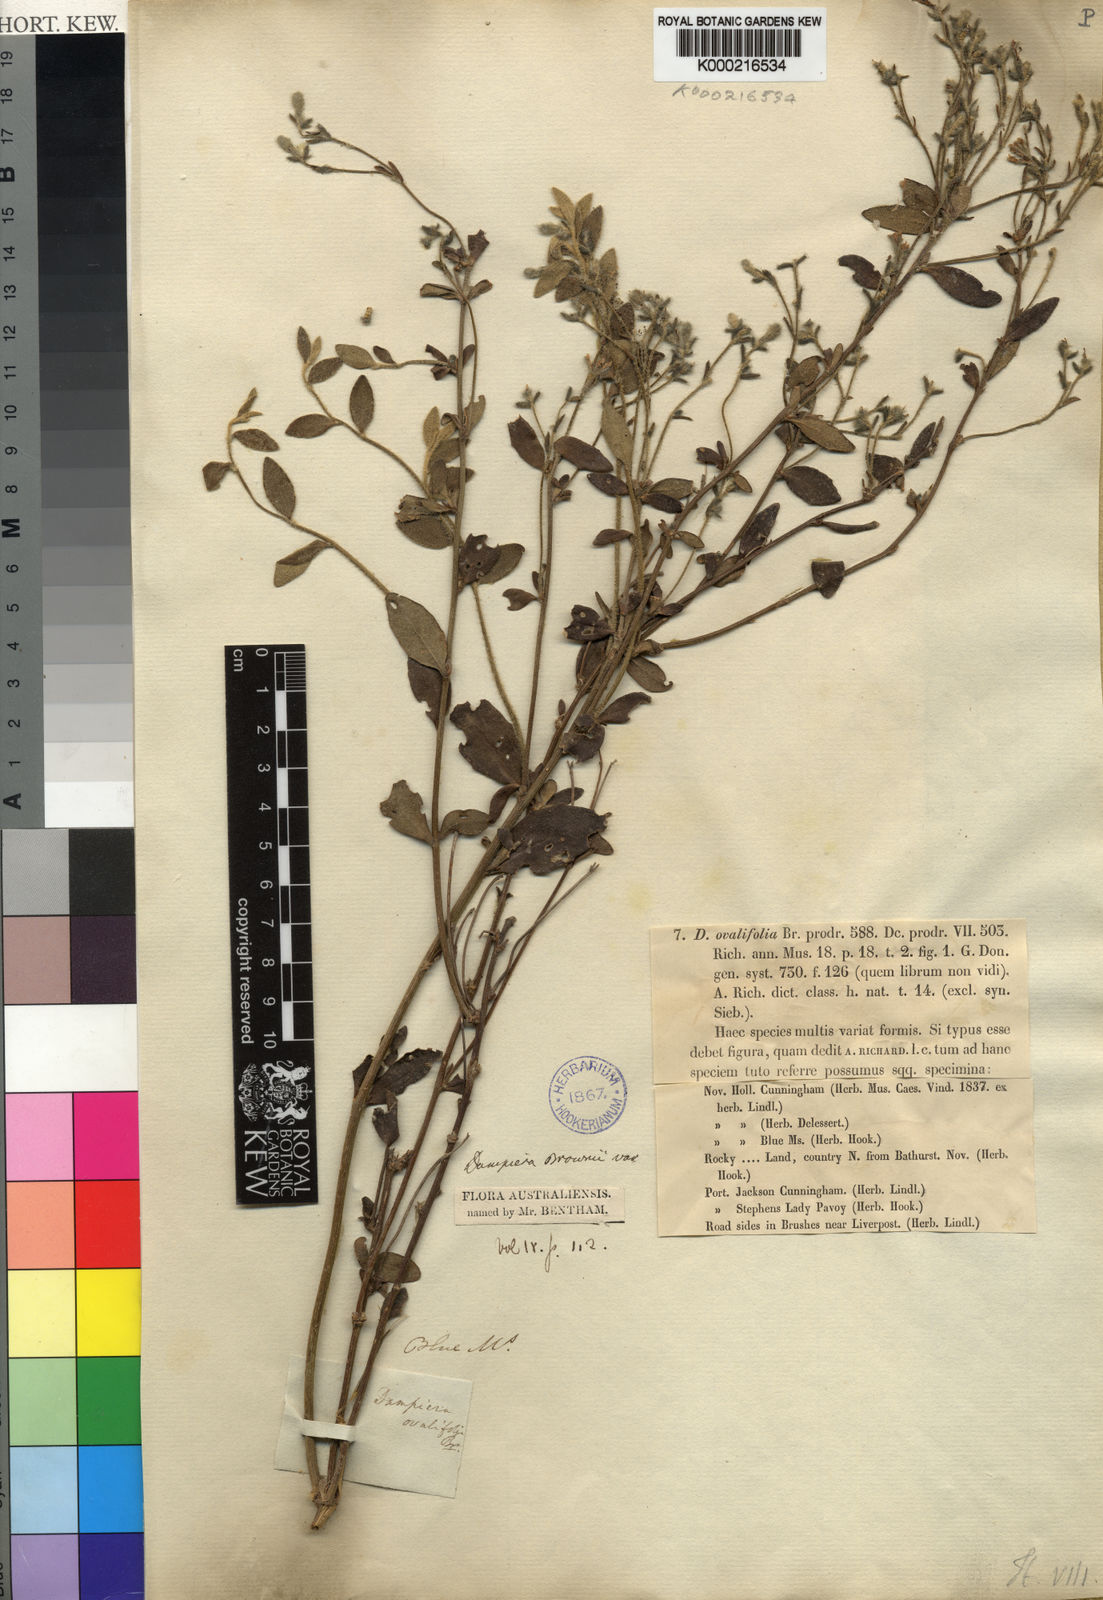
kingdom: Plantae
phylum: Tracheophyta
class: Magnoliopsida
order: Asterales
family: Goodeniaceae
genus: Dampiera
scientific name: Dampiera purpurea
